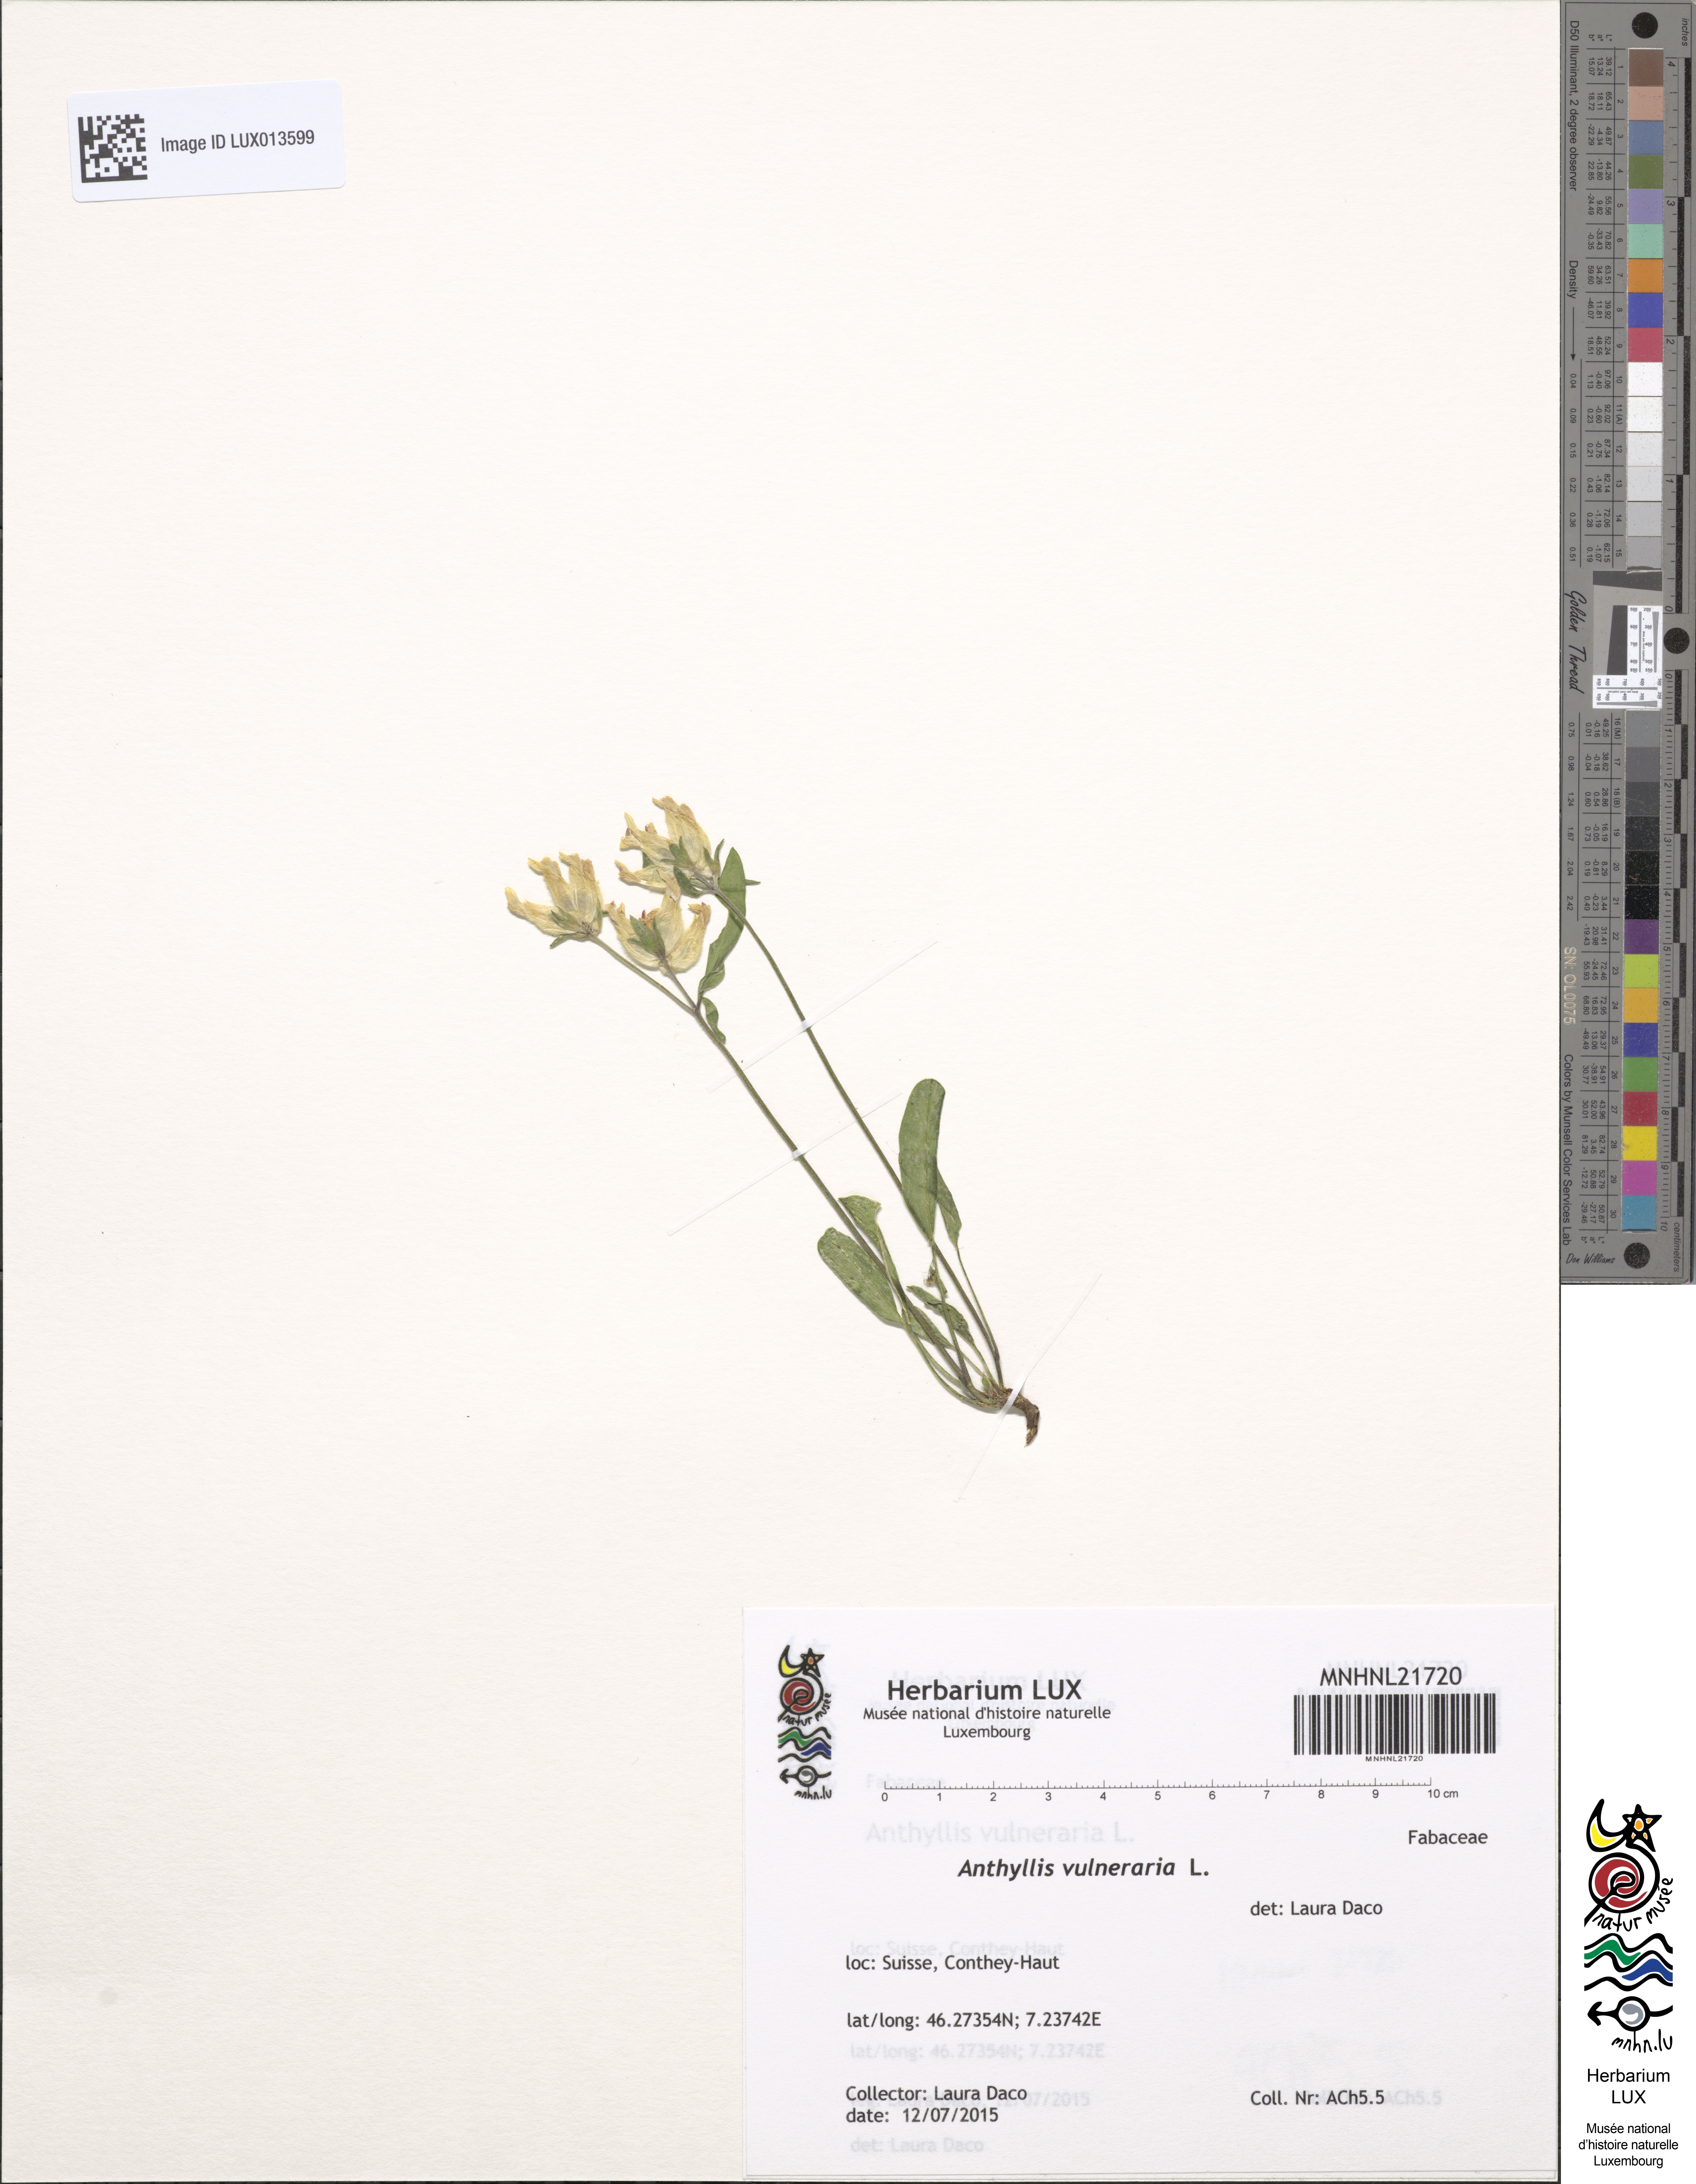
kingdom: Plantae
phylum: Tracheophyta
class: Magnoliopsida
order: Fabales
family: Fabaceae
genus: Anthyllis
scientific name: Anthyllis vulneraria
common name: Kidney vetch
